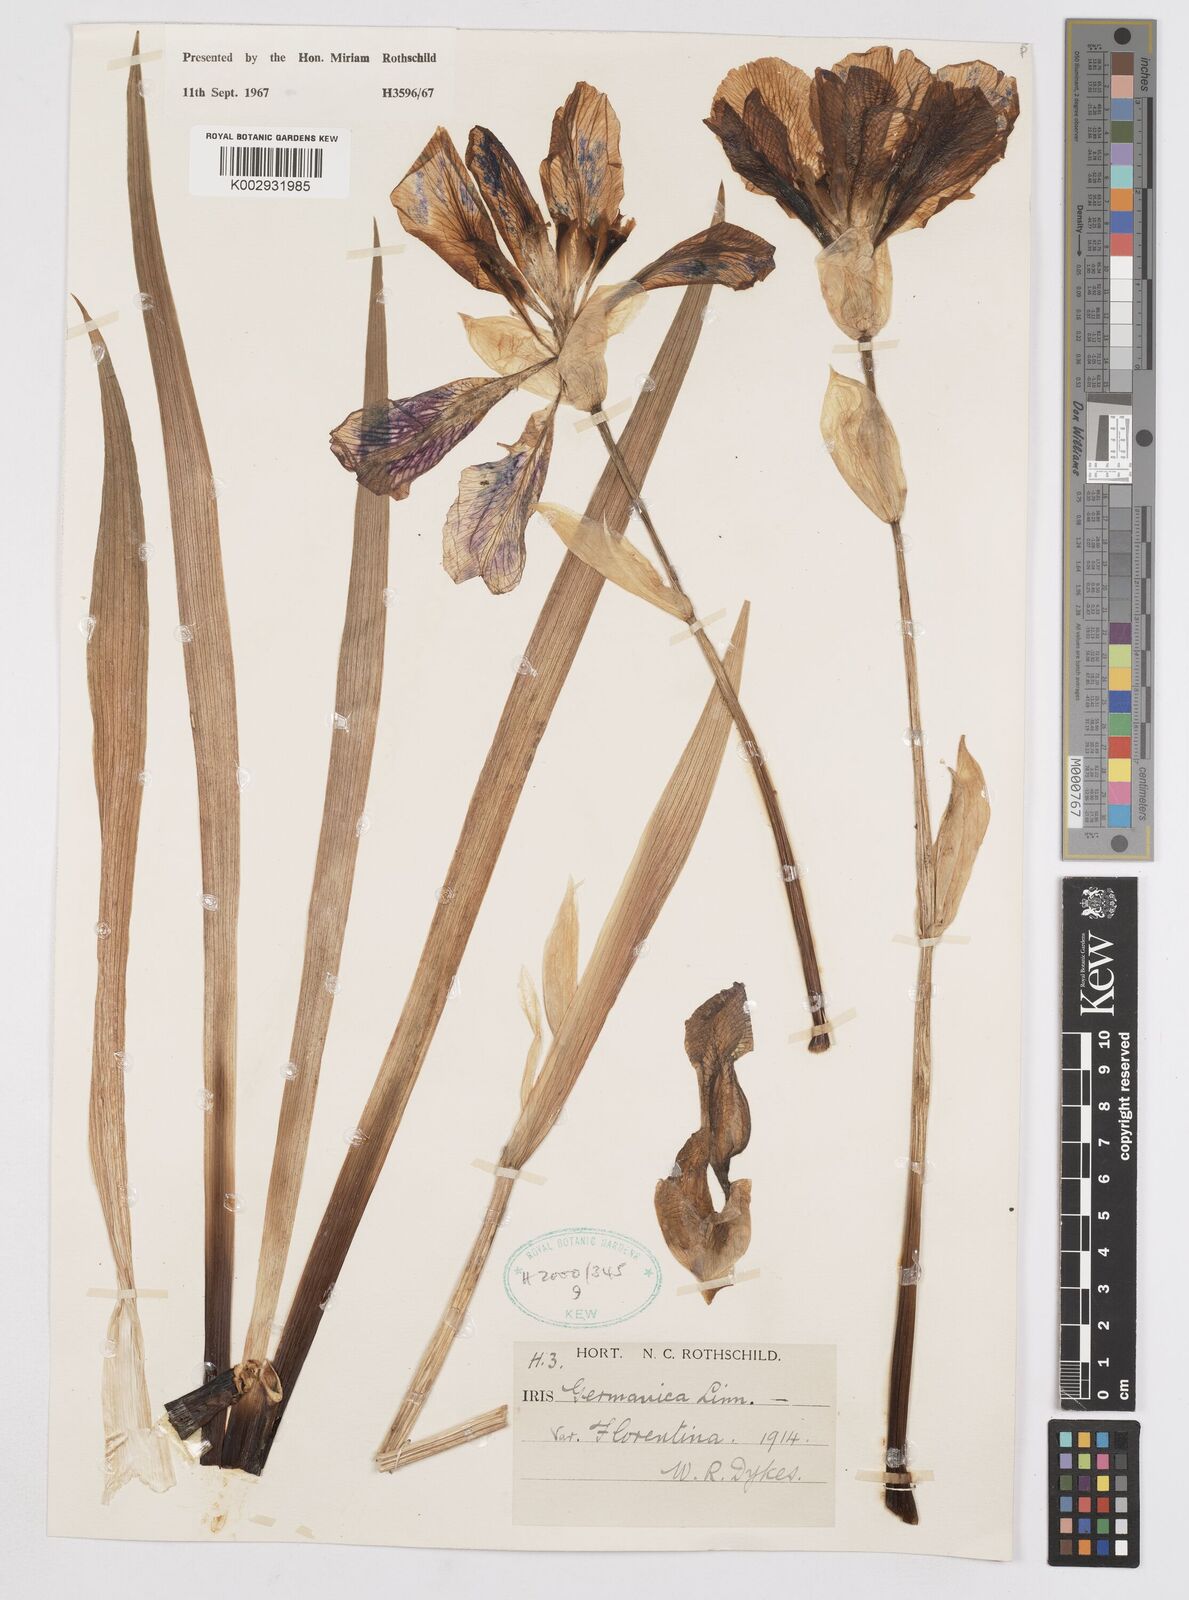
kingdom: Plantae
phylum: Tracheophyta
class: Liliopsida
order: Asparagales
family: Iridaceae
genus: Iris
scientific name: Iris
